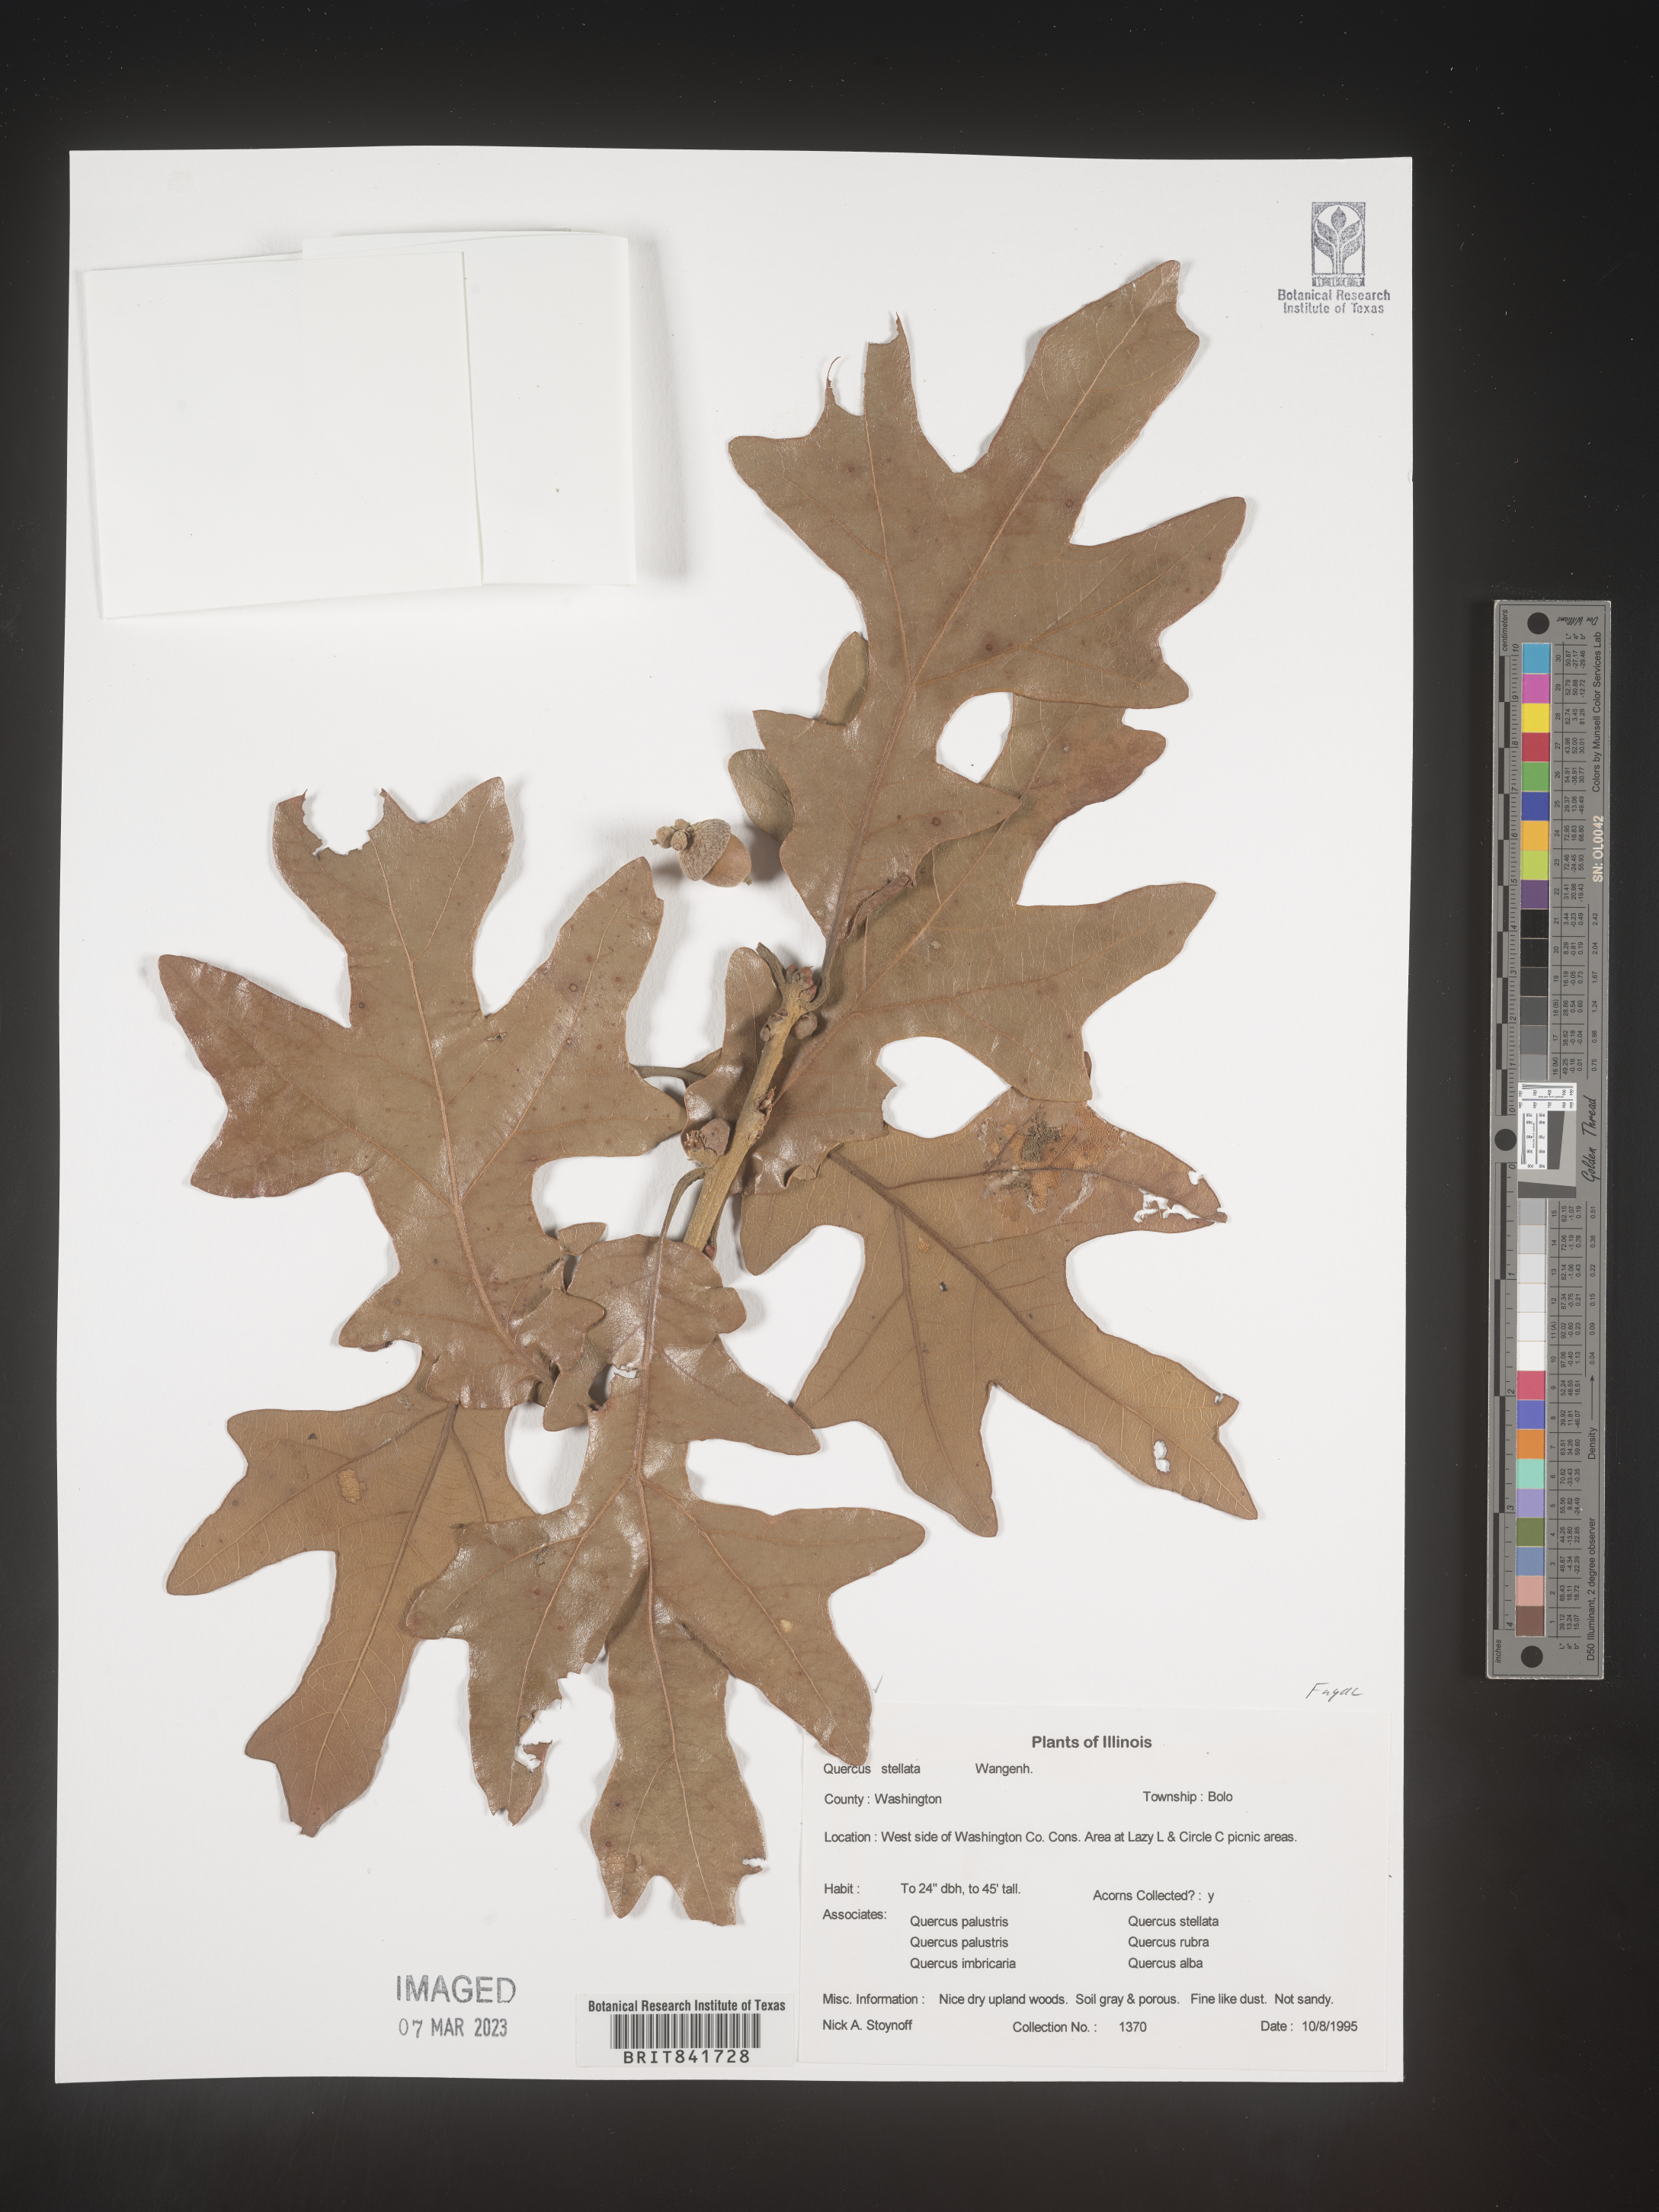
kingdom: Plantae
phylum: Tracheophyta
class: Magnoliopsida
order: Fagales
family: Fagaceae
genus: Quercus
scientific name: Quercus stellata
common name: Post oak
